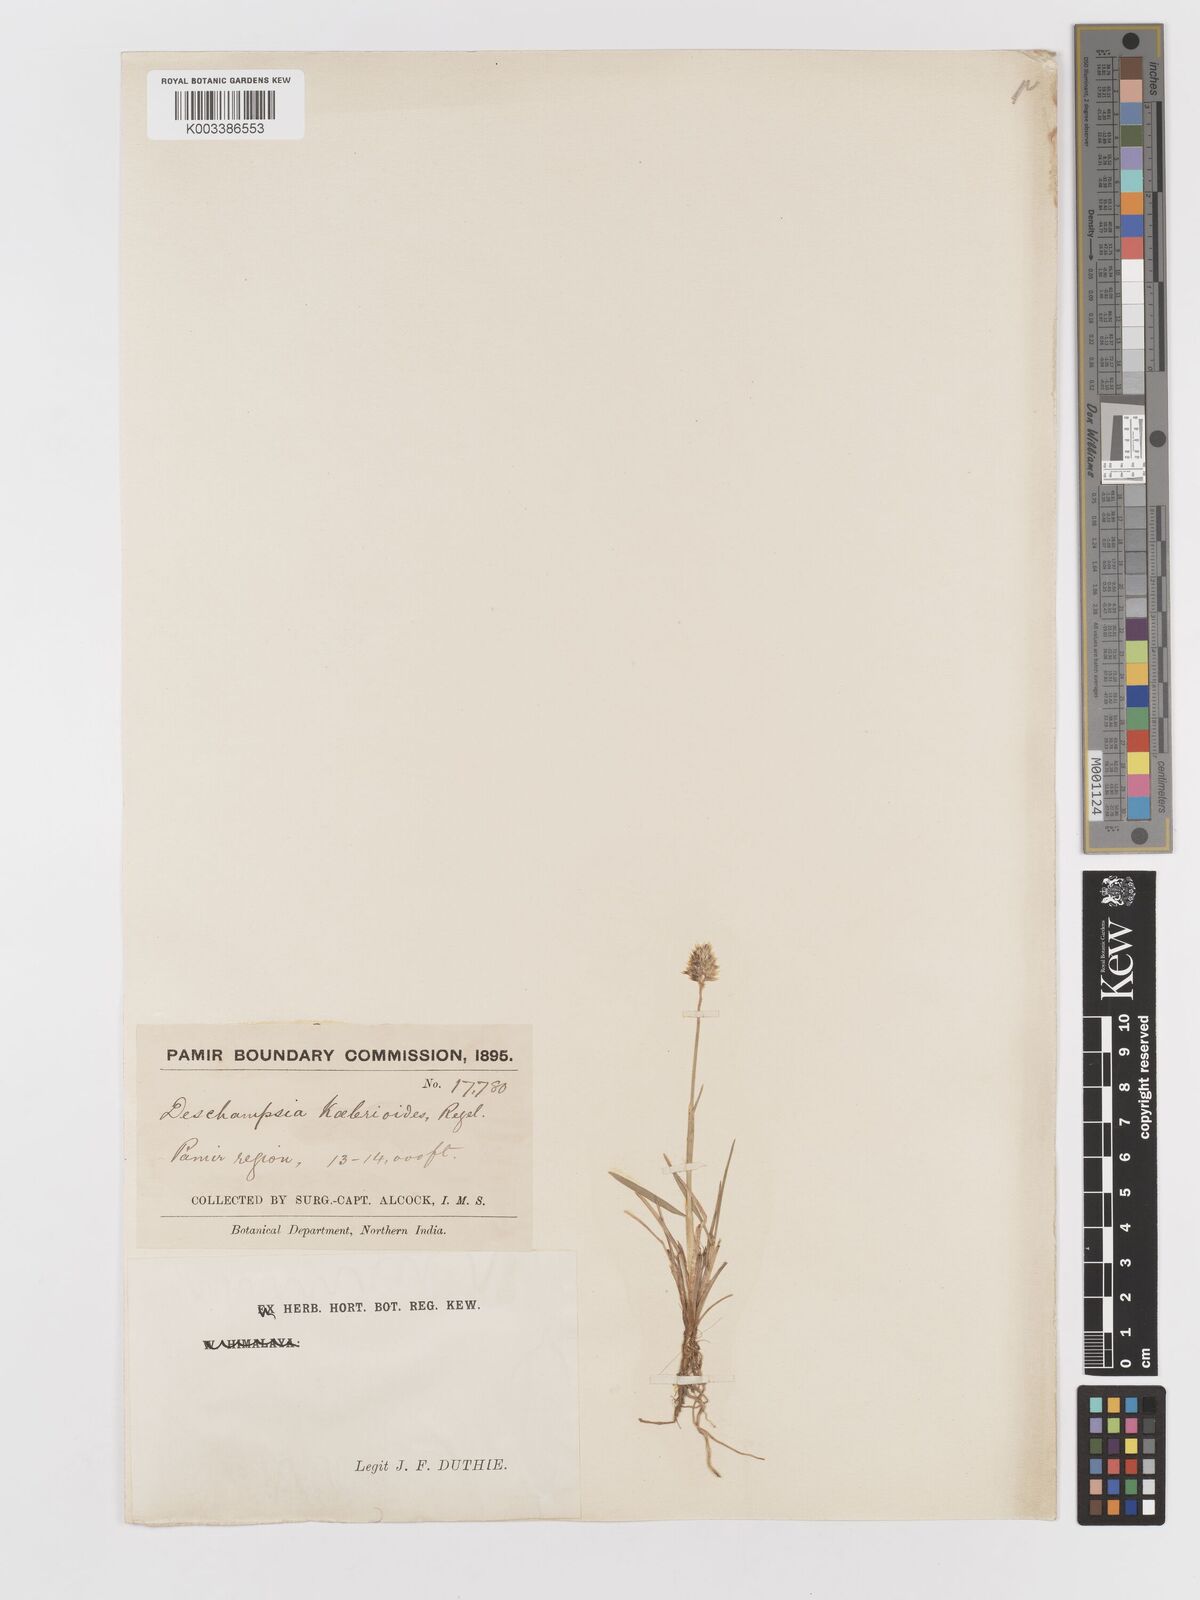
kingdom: Plantae
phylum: Tracheophyta
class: Liliopsida
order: Poales
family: Poaceae
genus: Deschampsia
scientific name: Deschampsia koelerioides
